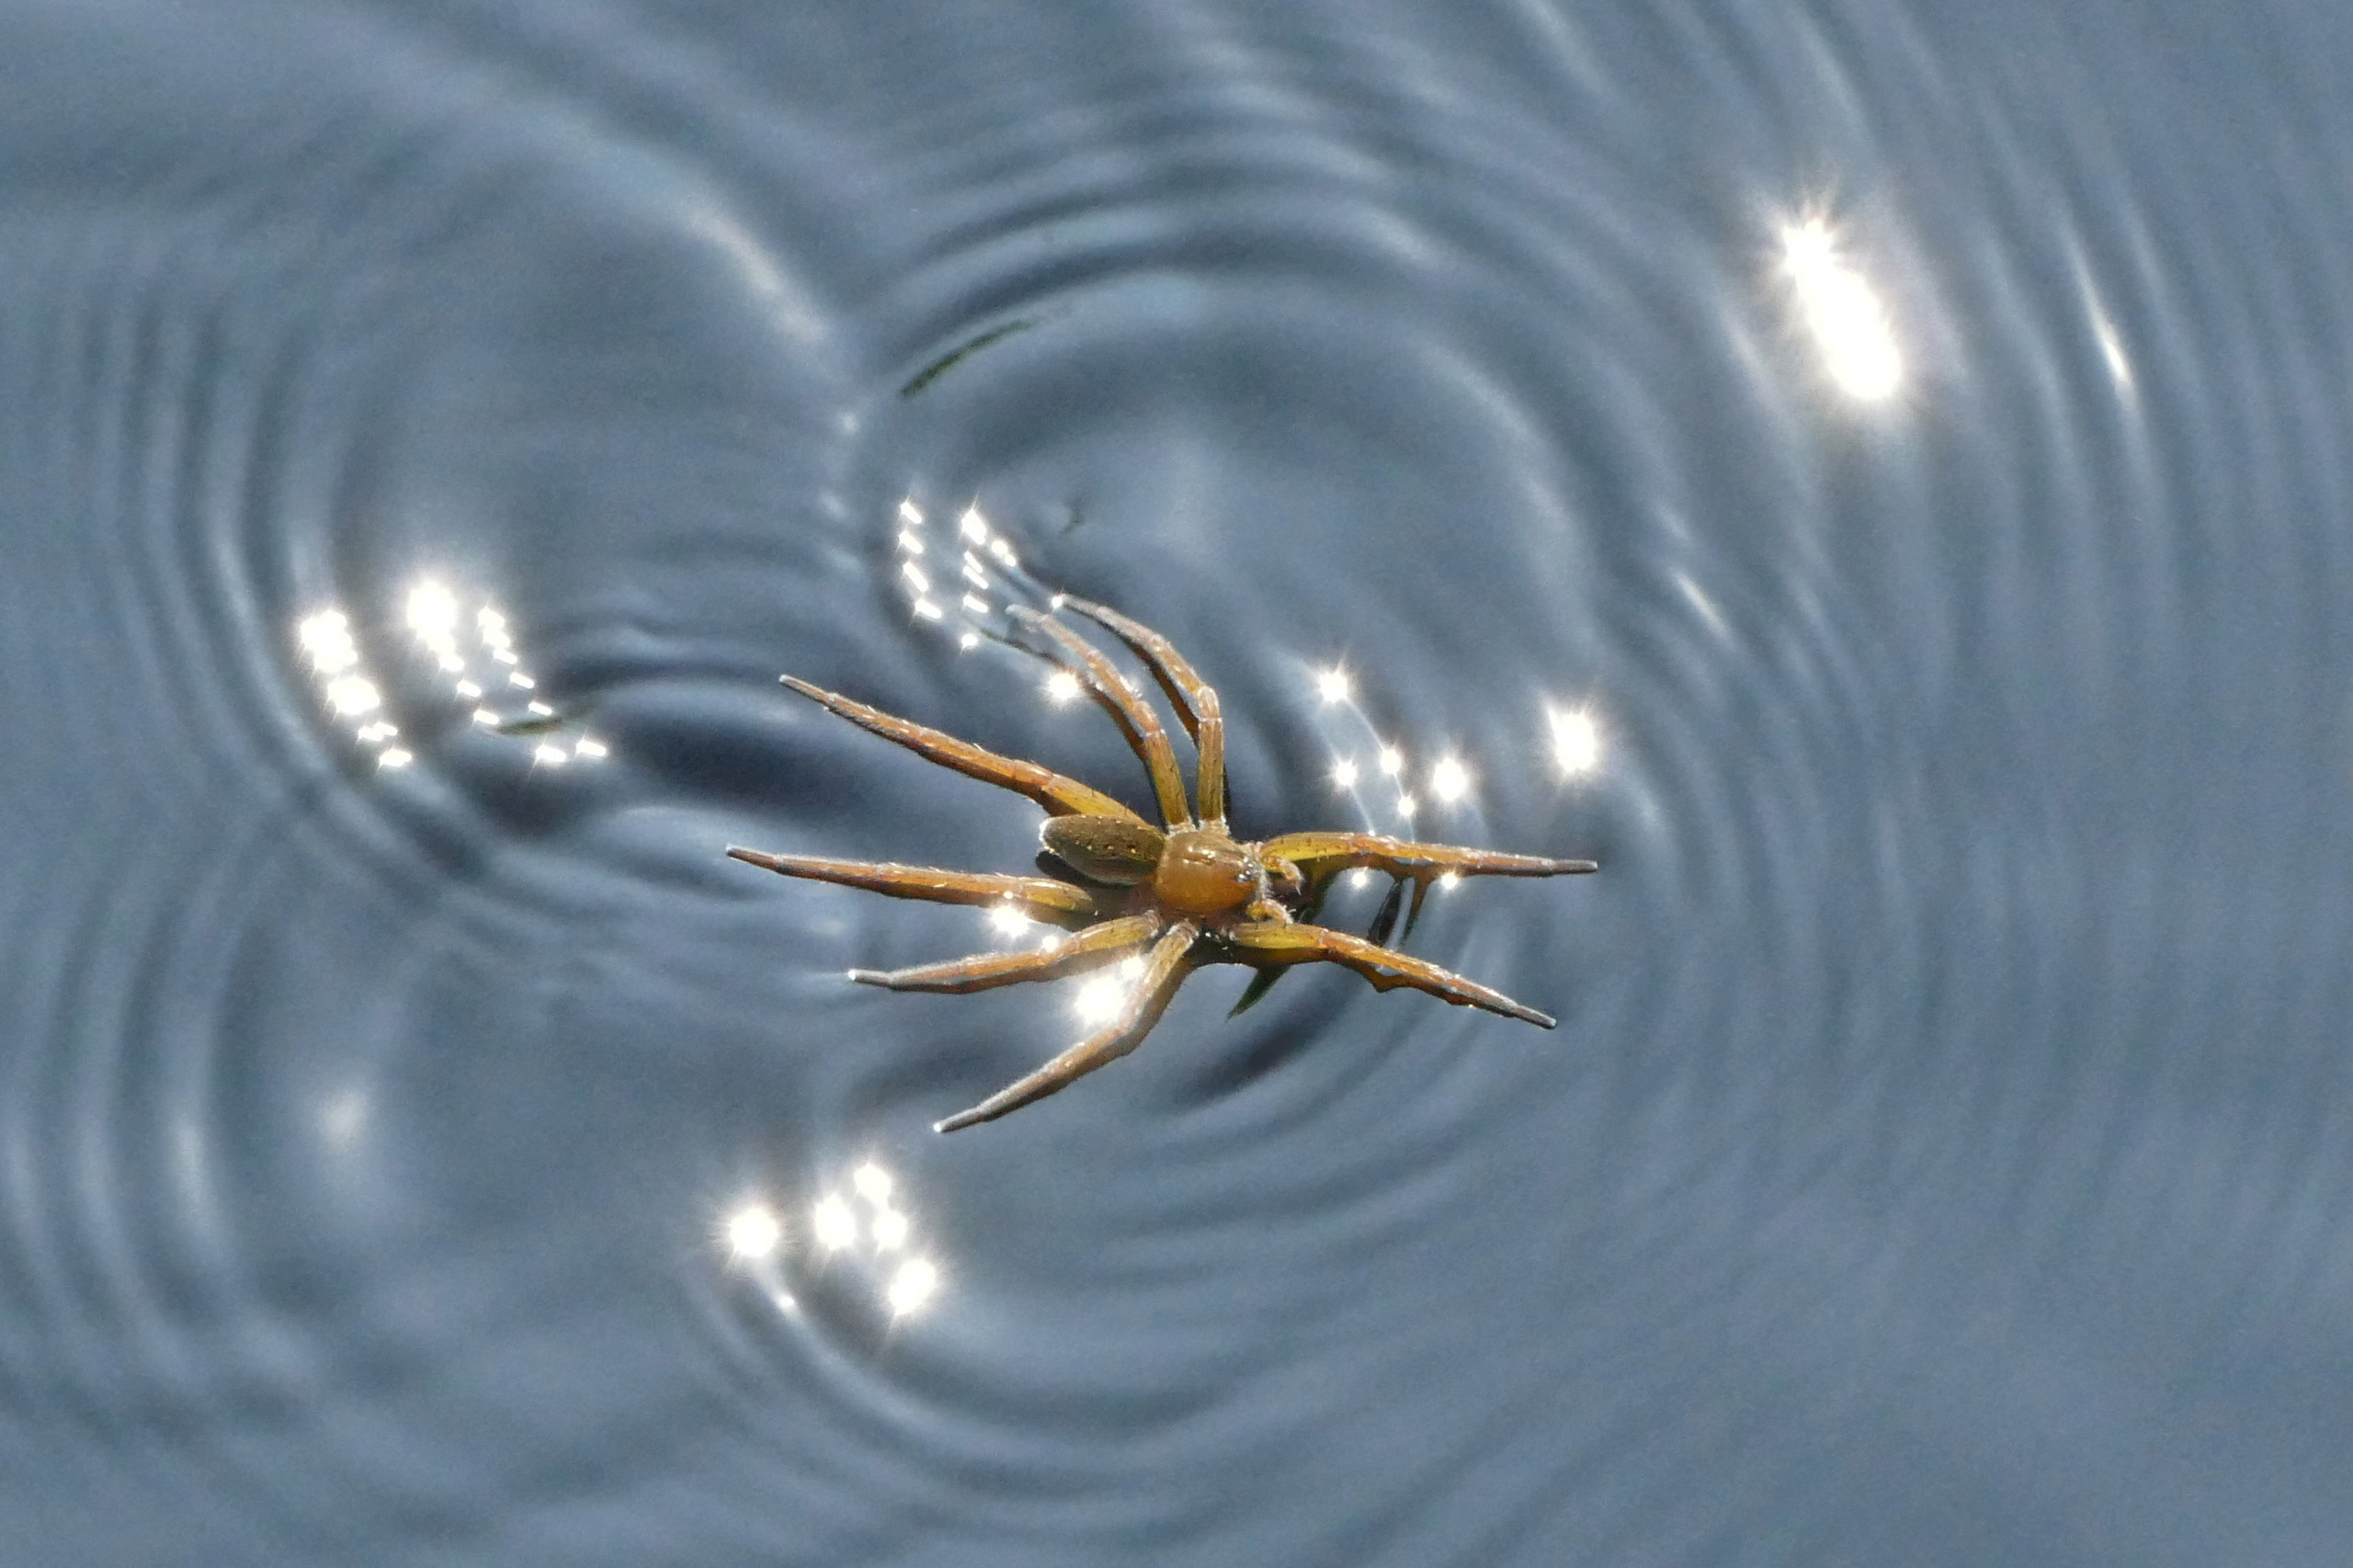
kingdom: Animalia
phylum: Arthropoda
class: Arachnida
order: Araneae
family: Pisauridae
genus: Dolomedes
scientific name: Dolomedes plantarius
